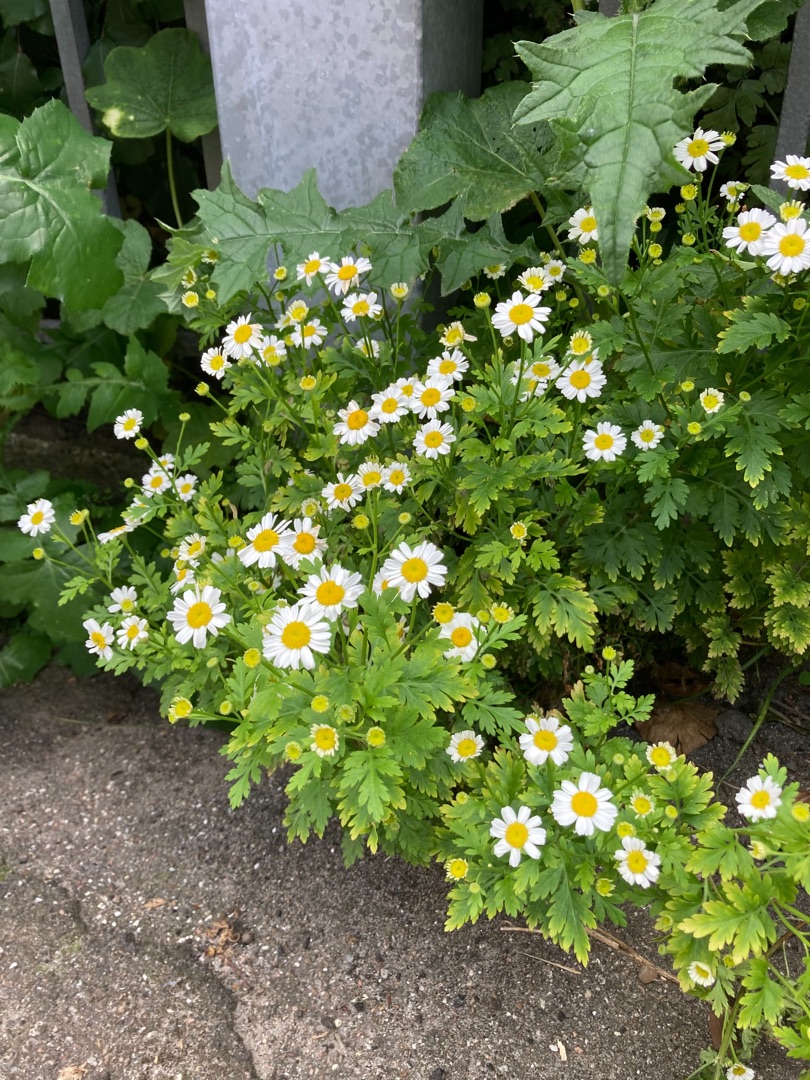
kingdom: Plantae
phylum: Tracheophyta
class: Magnoliopsida
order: Asterales
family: Asteraceae
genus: Tanacetum
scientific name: Tanacetum parthenium
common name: Matrem
